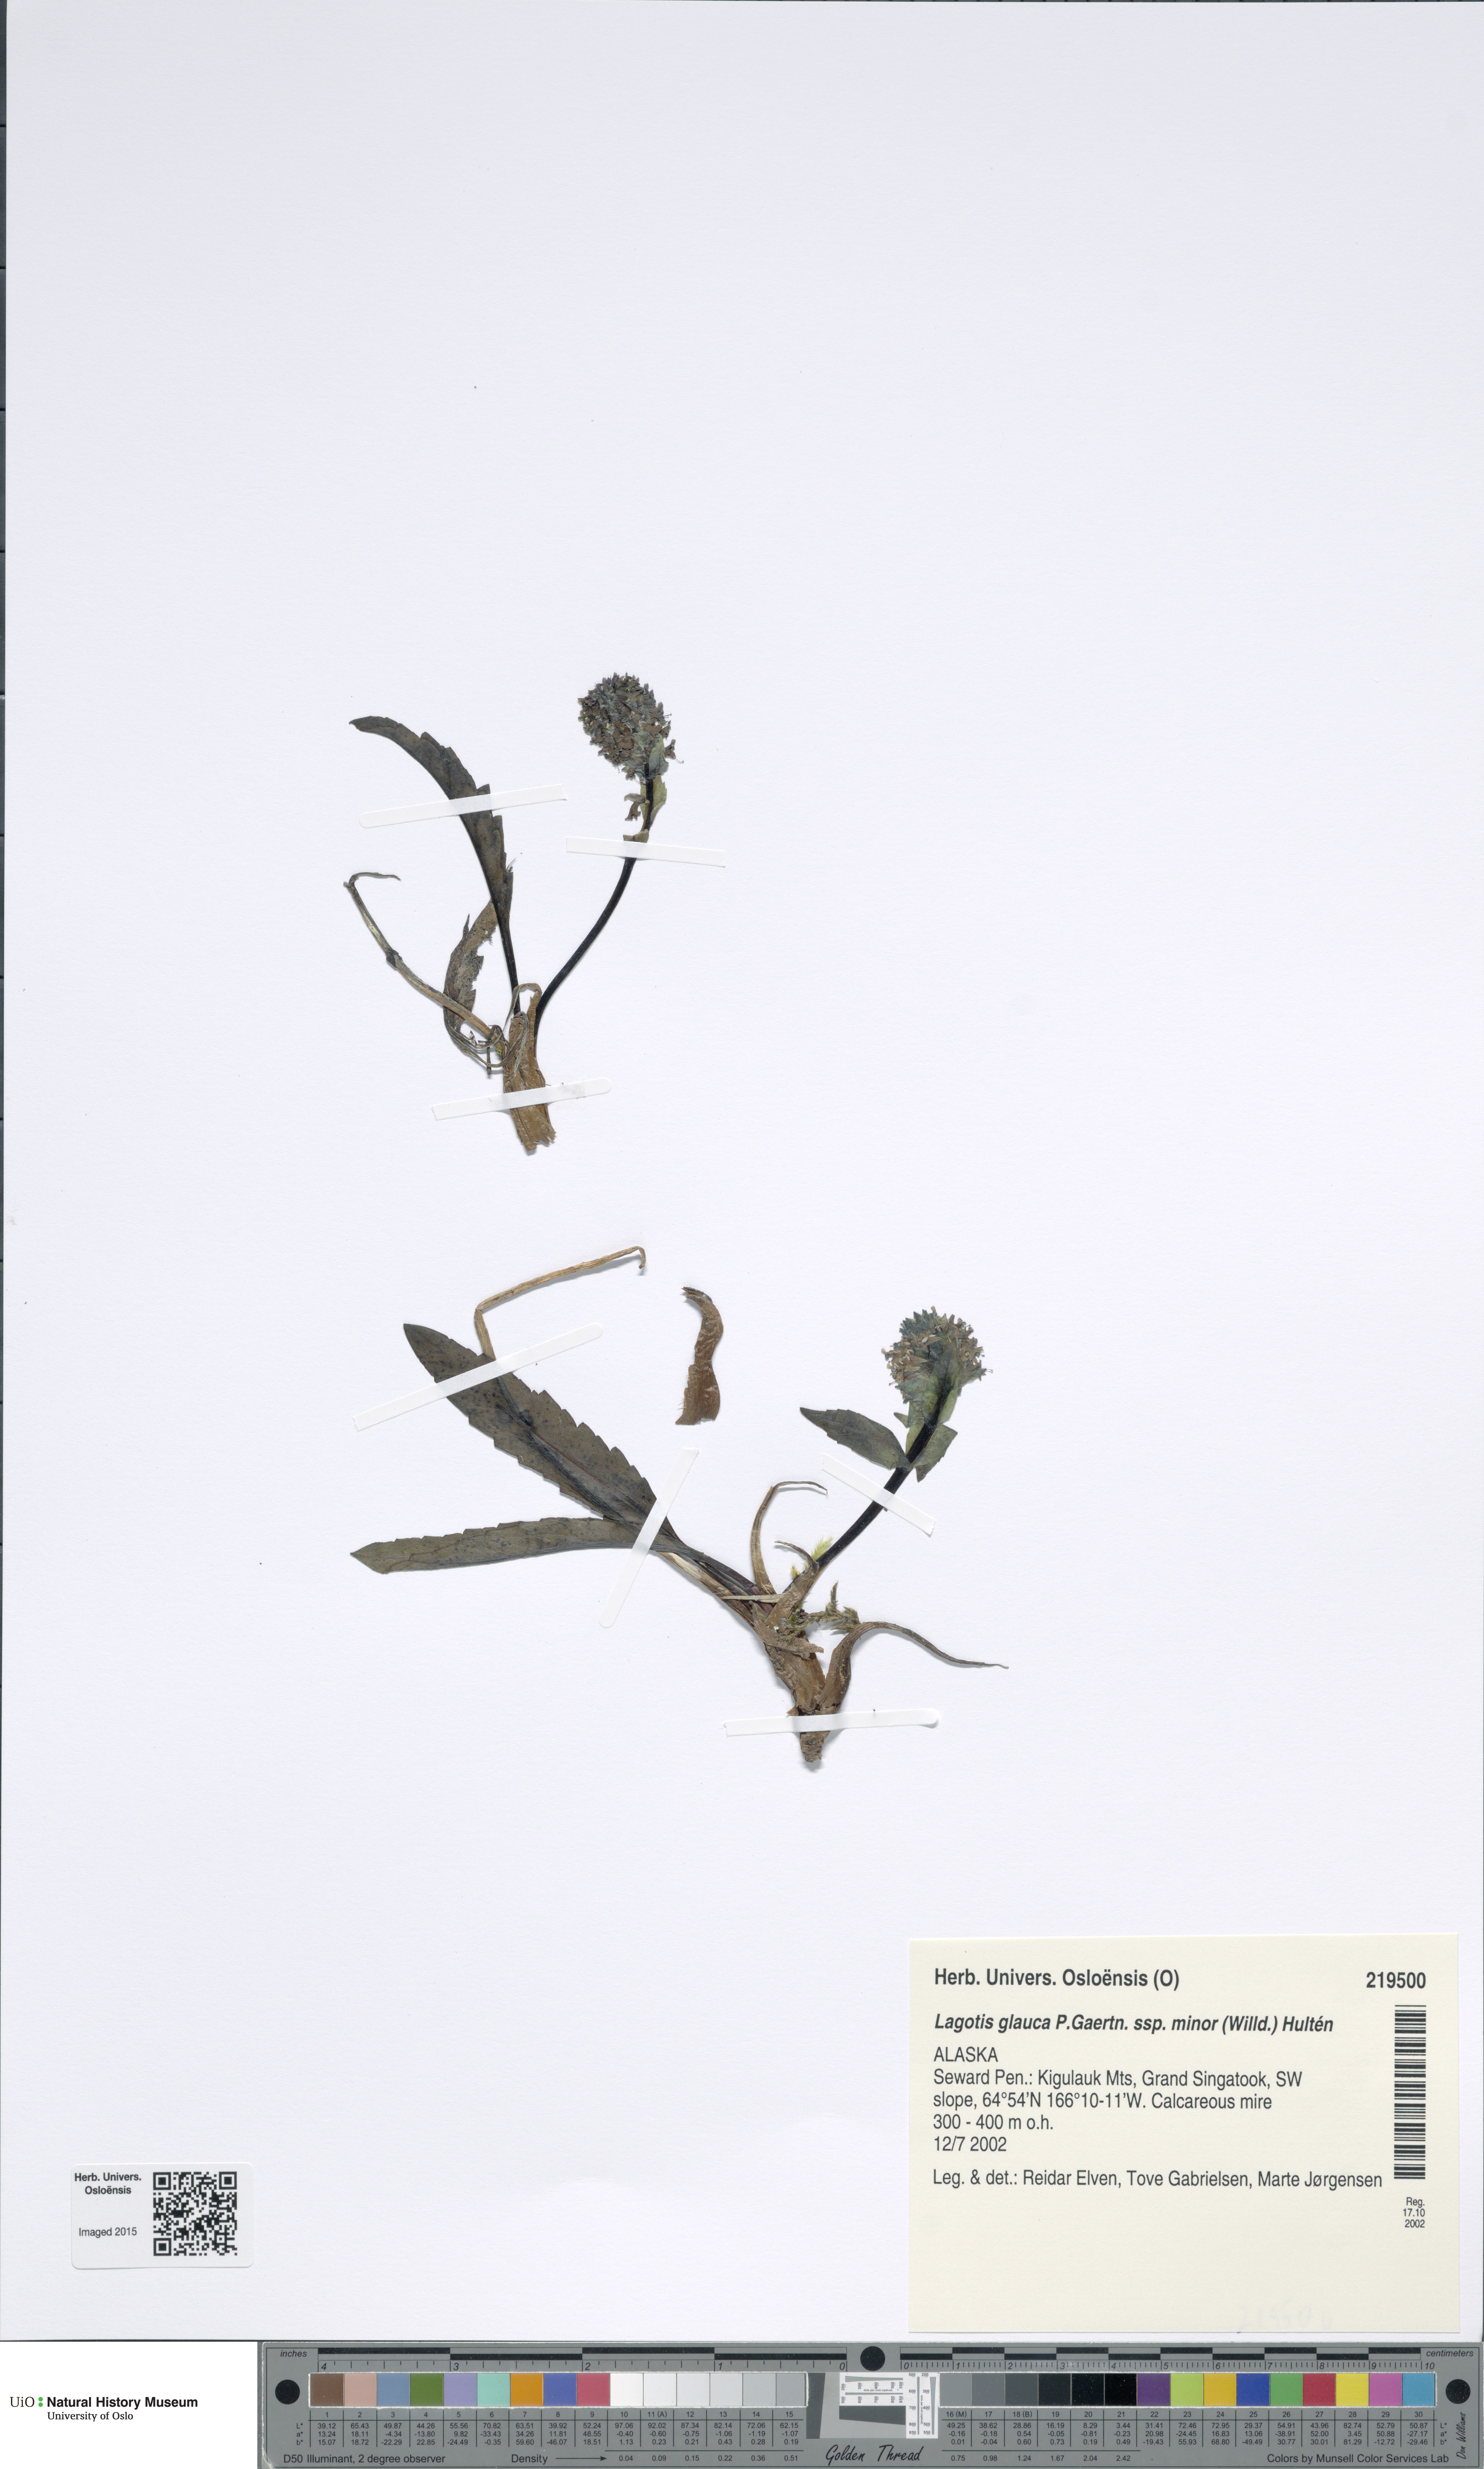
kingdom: Plantae
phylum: Tracheophyta
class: Magnoliopsida
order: Lamiales
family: Plantaginaceae
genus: Lagotis
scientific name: Lagotis glauca
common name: Glaucous weaselsnout
